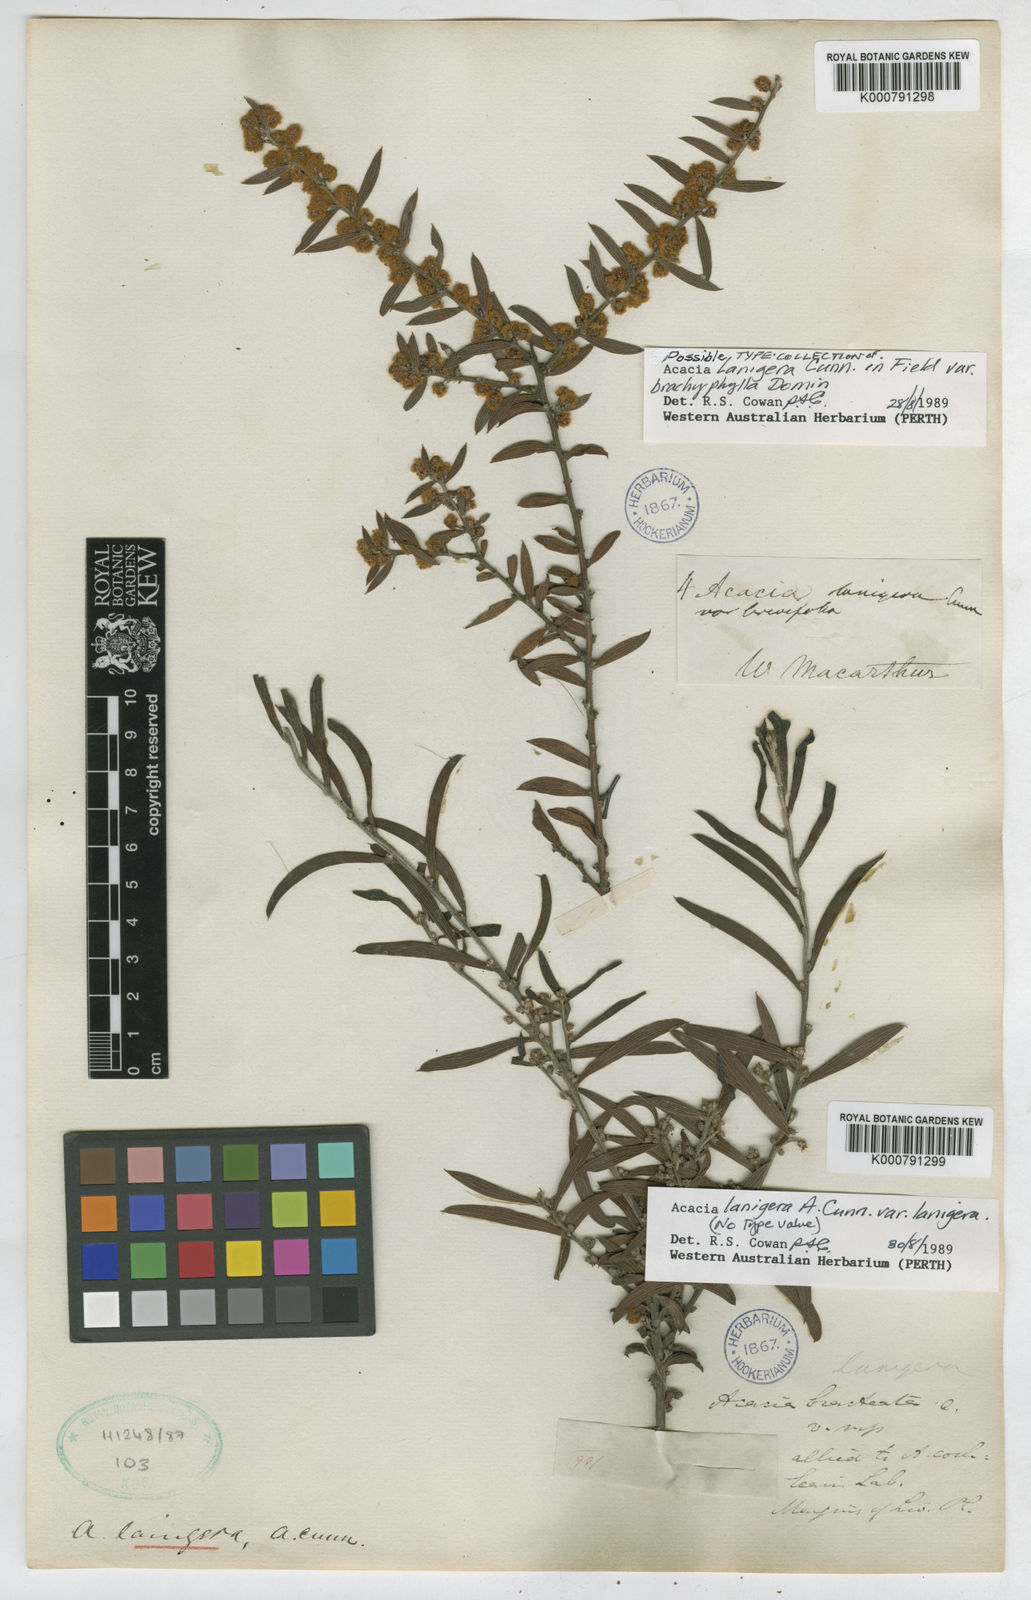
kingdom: Plantae
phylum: Tracheophyta
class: Magnoliopsida
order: Fabales
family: Fabaceae
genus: Acacia
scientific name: Acacia lanigera
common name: Hairy wattle
